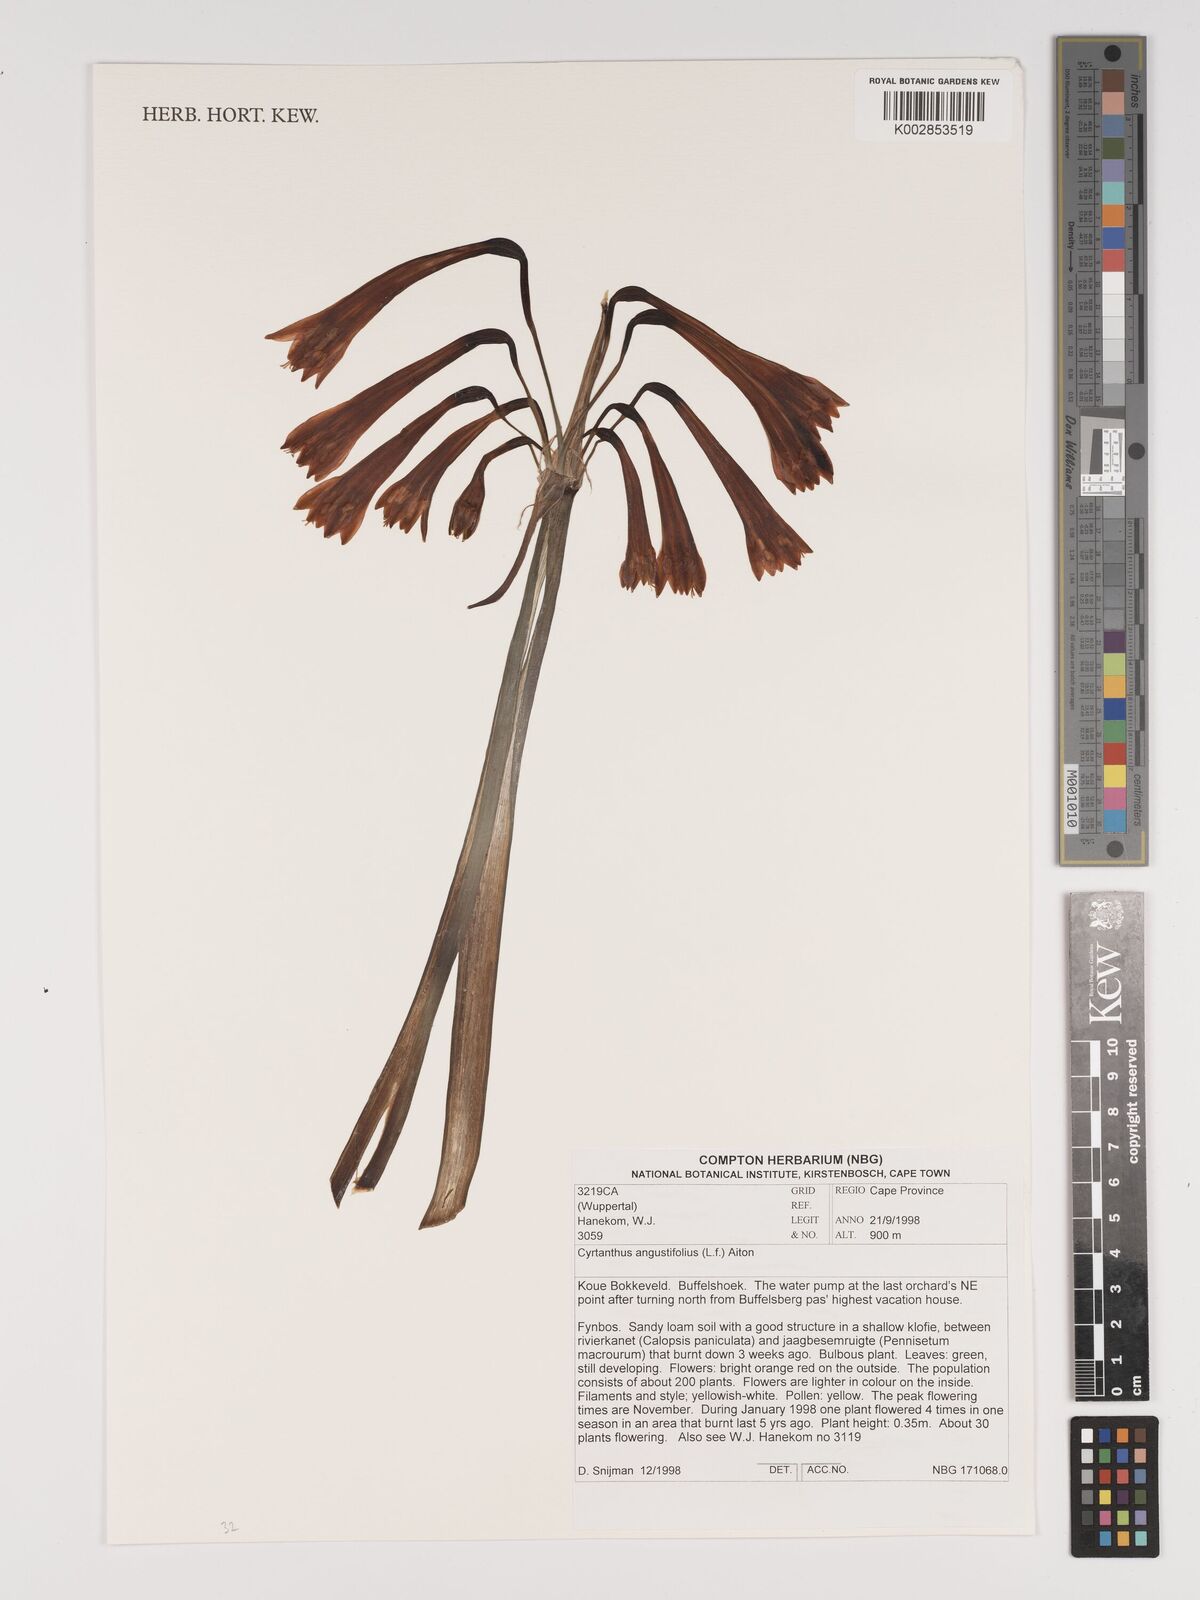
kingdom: Plantae
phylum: Tracheophyta
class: Liliopsida
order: Asparagales
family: Amaryllidaceae
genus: Cyrtanthus
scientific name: Cyrtanthus angustifolius
